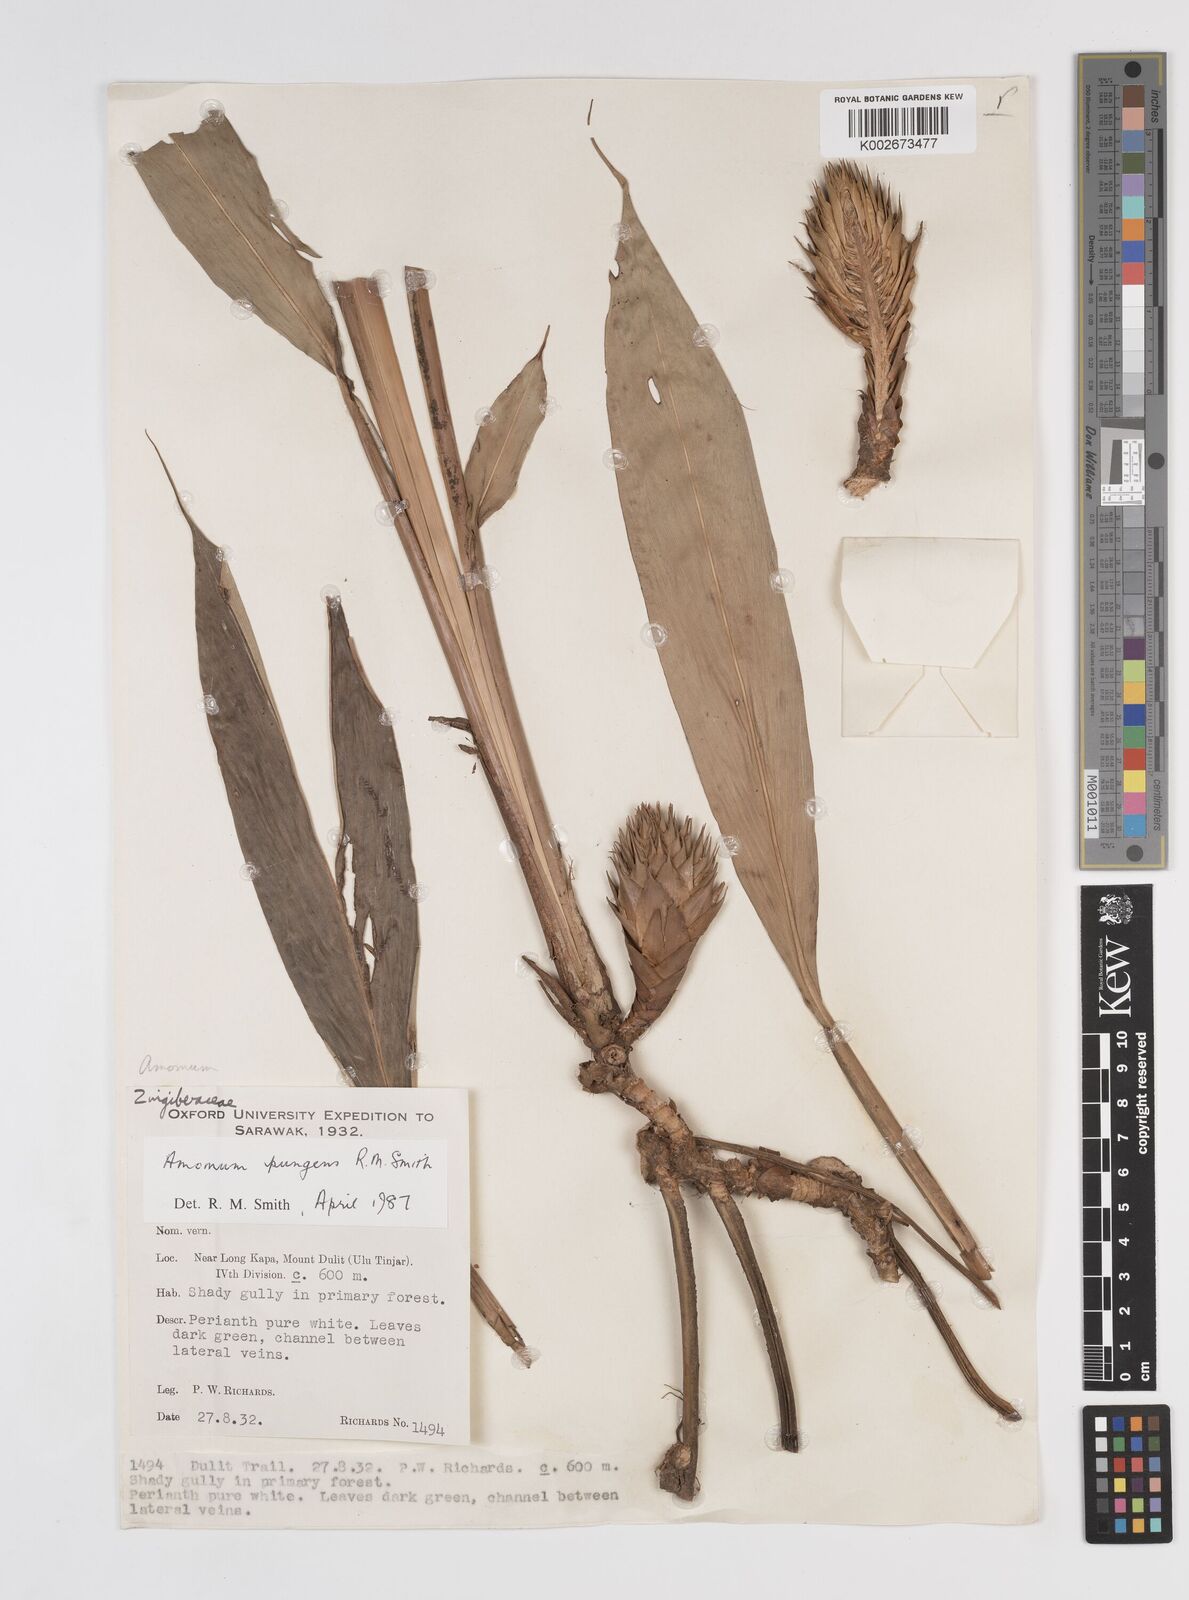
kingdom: Plantae
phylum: Tracheophyta
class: Liliopsida
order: Zingiberales
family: Zingiberaceae
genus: Epiamomum
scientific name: Epiamomum pungens
